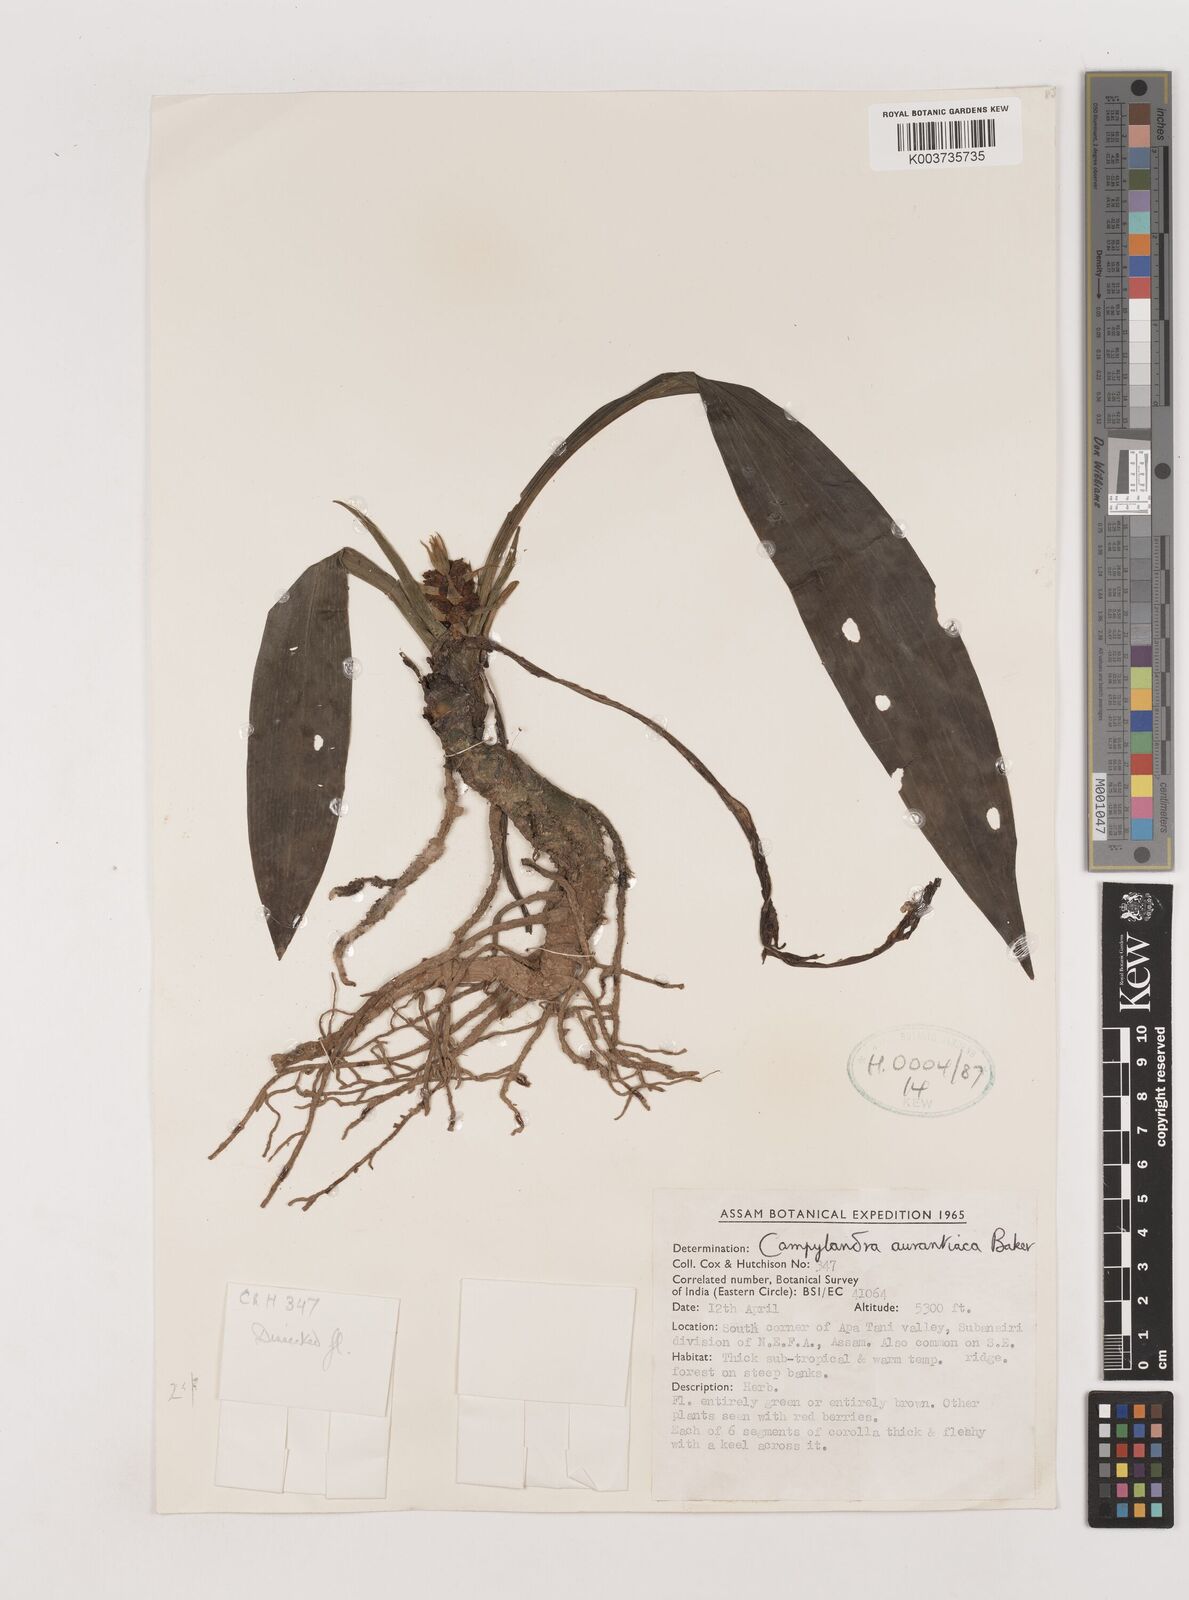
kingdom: Plantae
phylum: Tracheophyta
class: Liliopsida
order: Asparagales
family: Asparagaceae
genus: Rohdea
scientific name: Rohdea nepalensis
